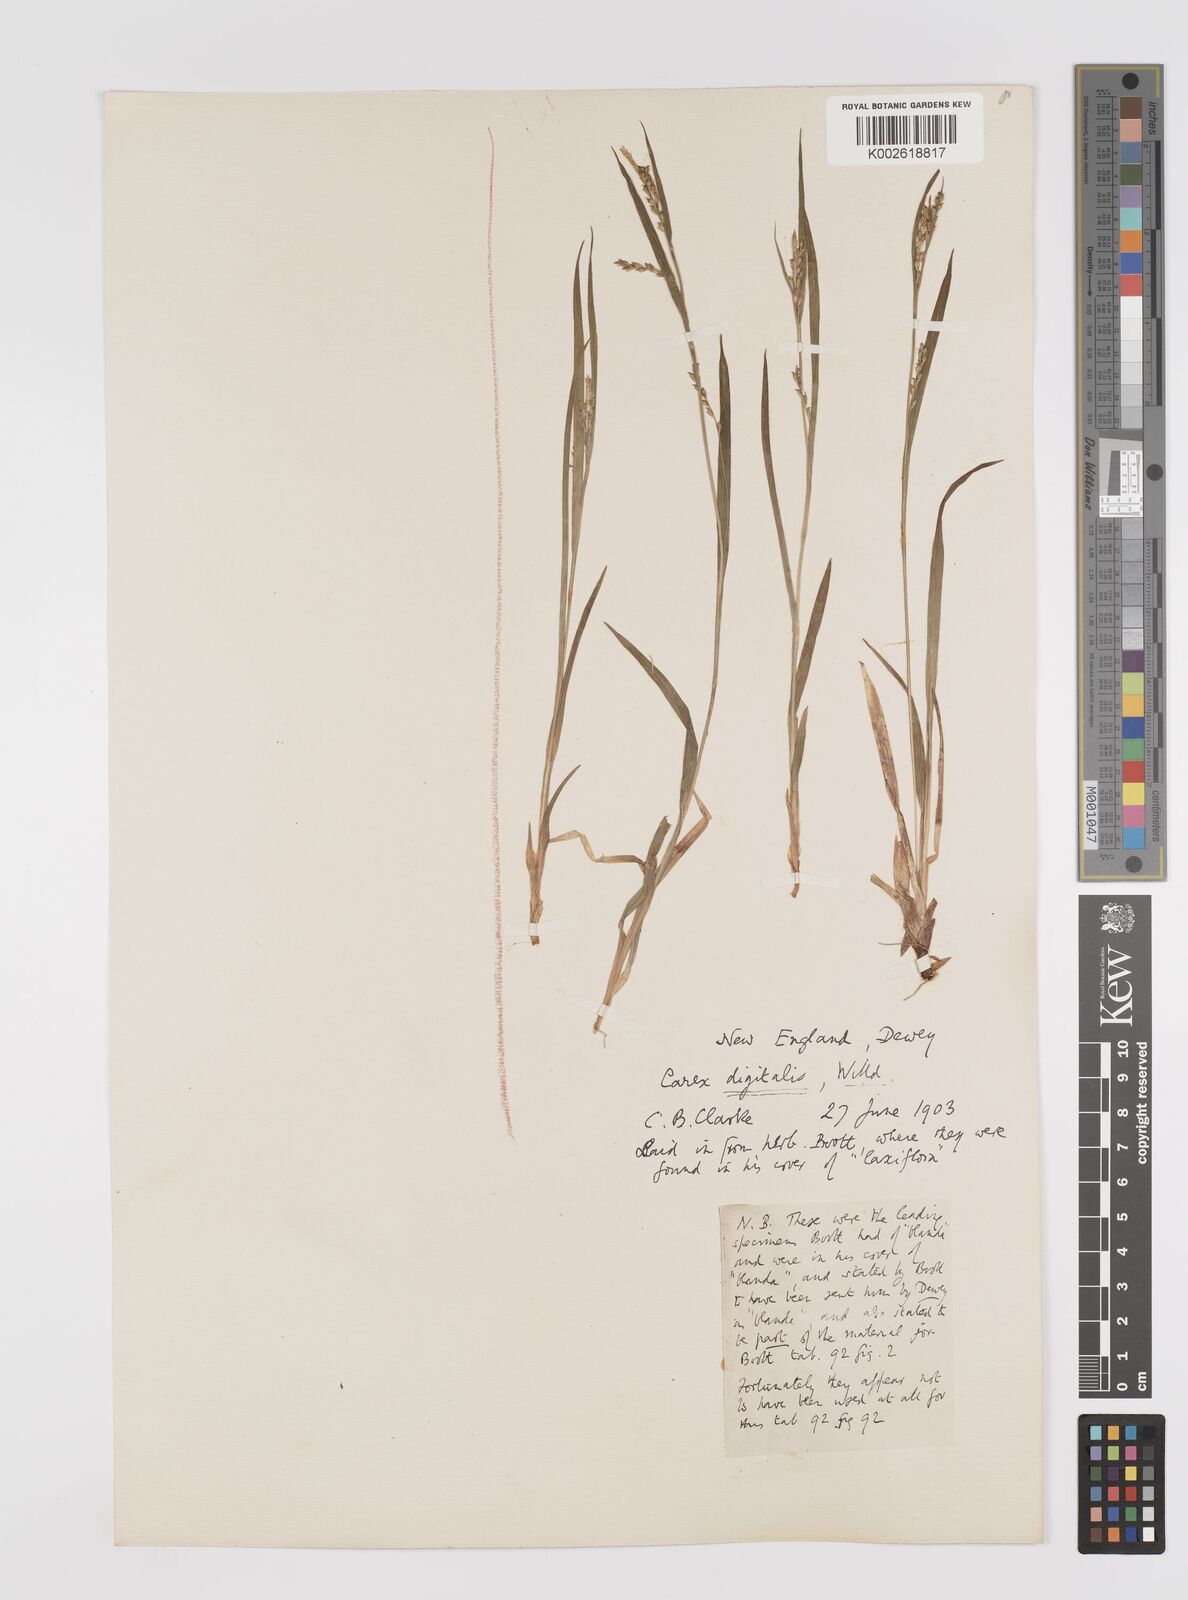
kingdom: Plantae
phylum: Tracheophyta
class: Liliopsida
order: Poales
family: Cyperaceae
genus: Carex
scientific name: Carex digitalis
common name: Slender wood sedge
